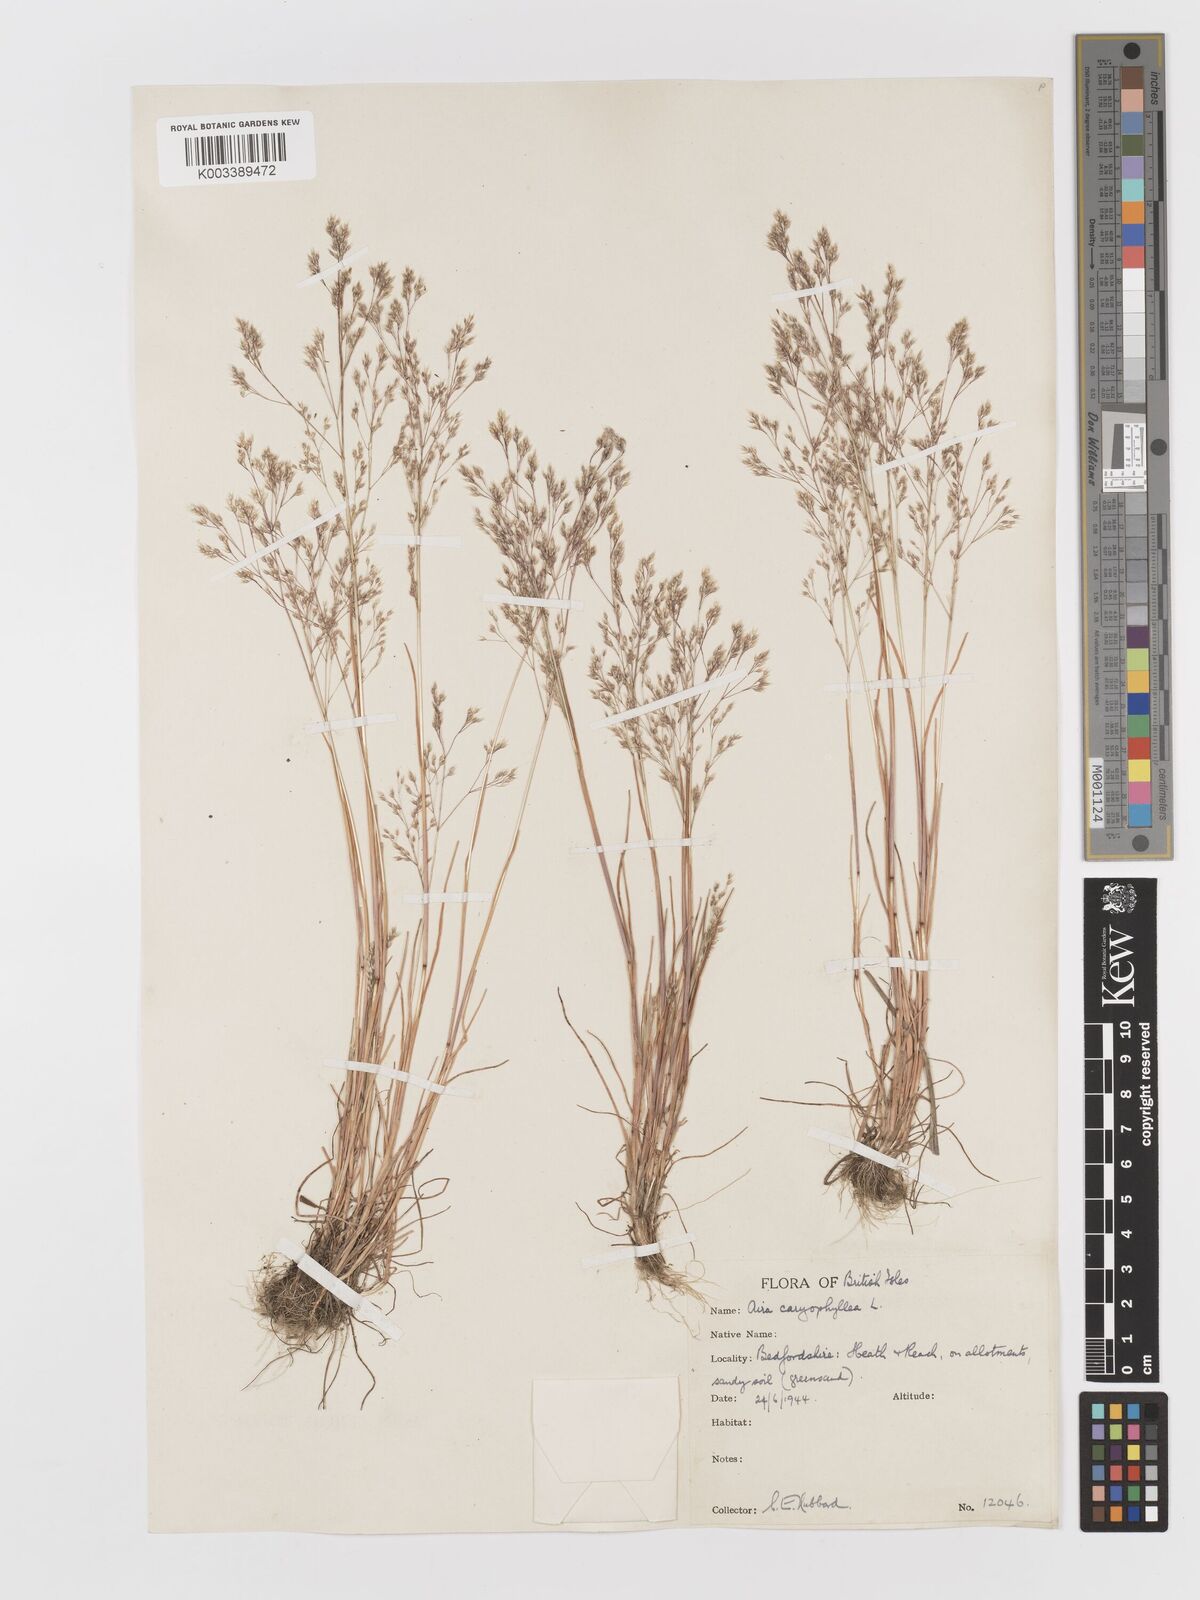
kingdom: Plantae
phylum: Tracheophyta
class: Liliopsida
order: Poales
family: Poaceae
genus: Aira
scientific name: Aira caryophyllea
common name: Silver hairgrass
